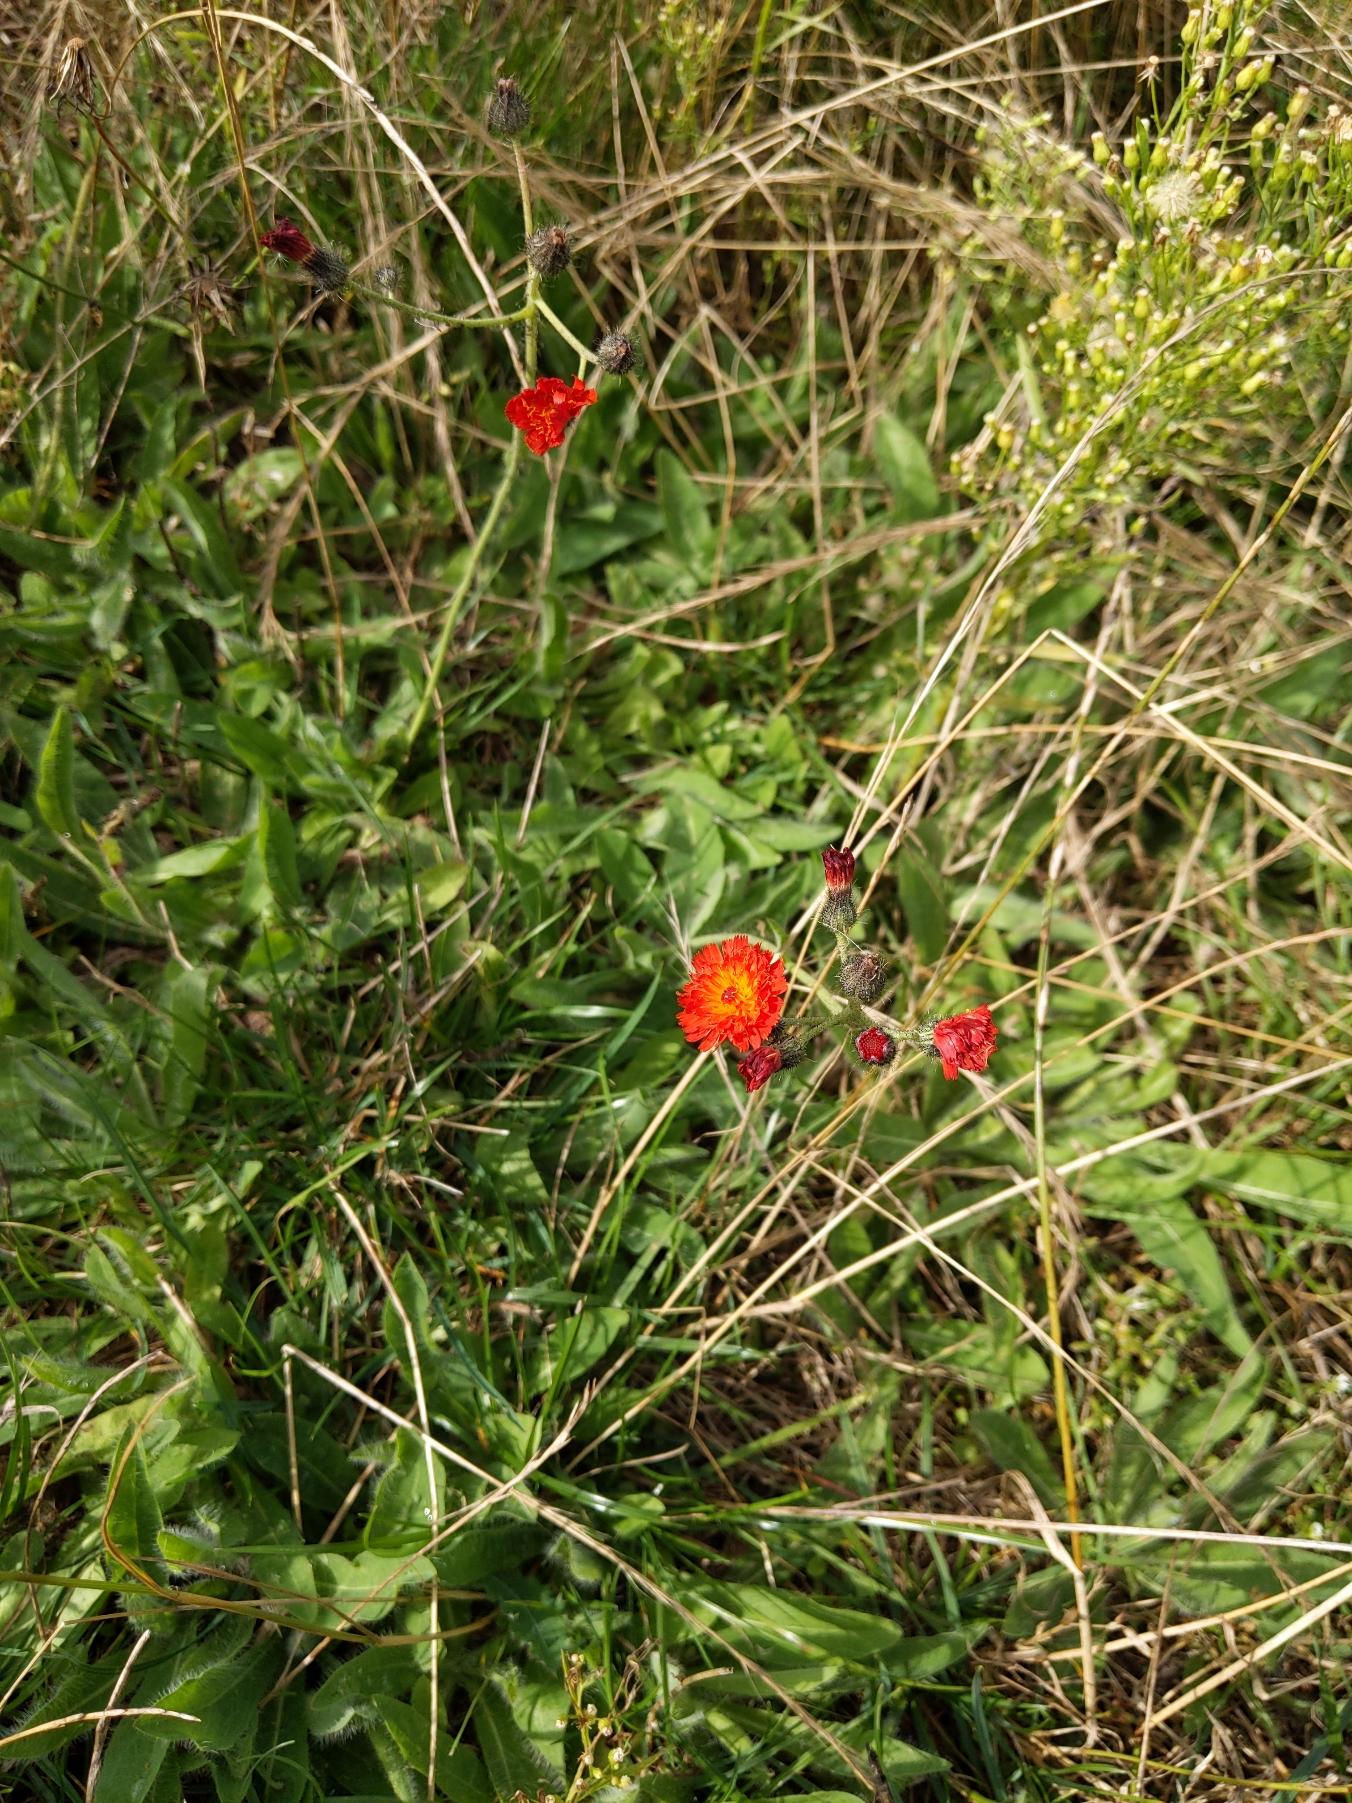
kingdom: Plantae
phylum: Tracheophyta
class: Magnoliopsida
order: Asterales
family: Asteraceae
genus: Pilosella
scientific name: Pilosella aurantiaca
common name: Pomerans-høgeurt
